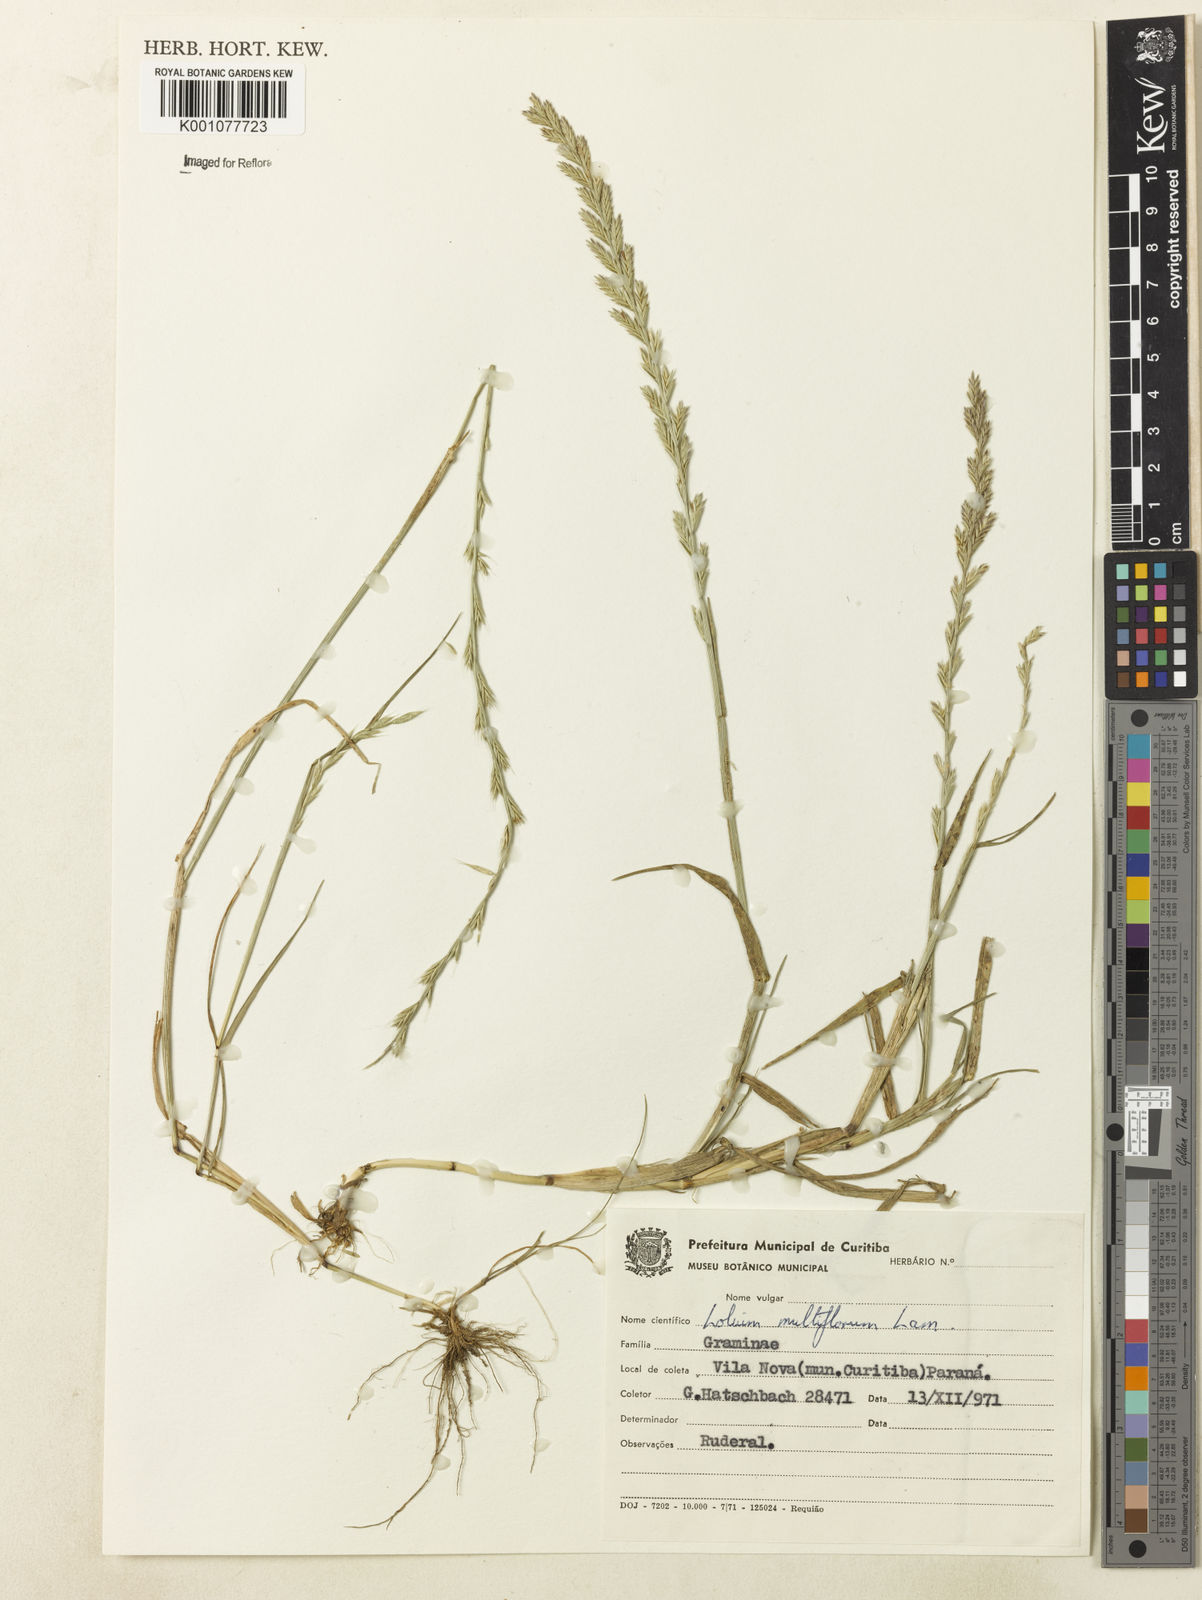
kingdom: Plantae
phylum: Tracheophyta
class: Liliopsida
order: Poales
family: Poaceae
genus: Lolium
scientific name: Lolium multiflorum
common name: Annual ryegrass
